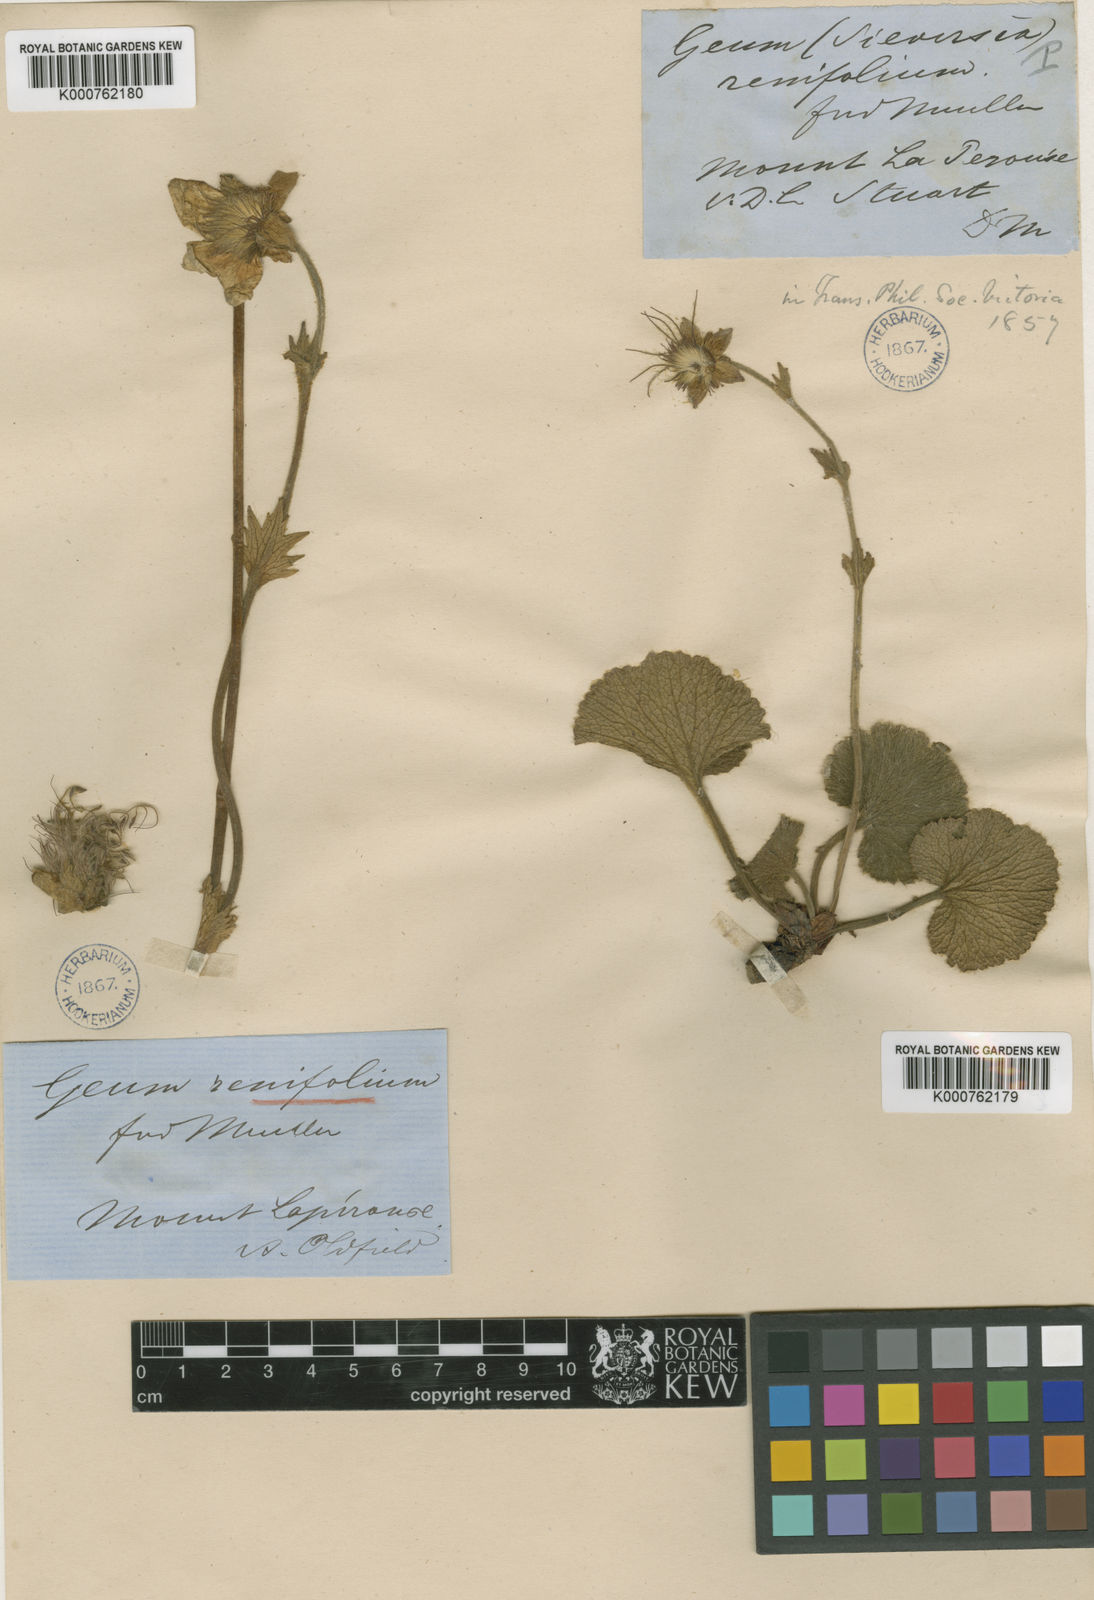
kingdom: Plantae
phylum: Tracheophyta
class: Magnoliopsida
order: Rosales
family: Rosaceae
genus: Geum
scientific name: Geum talbotianum
